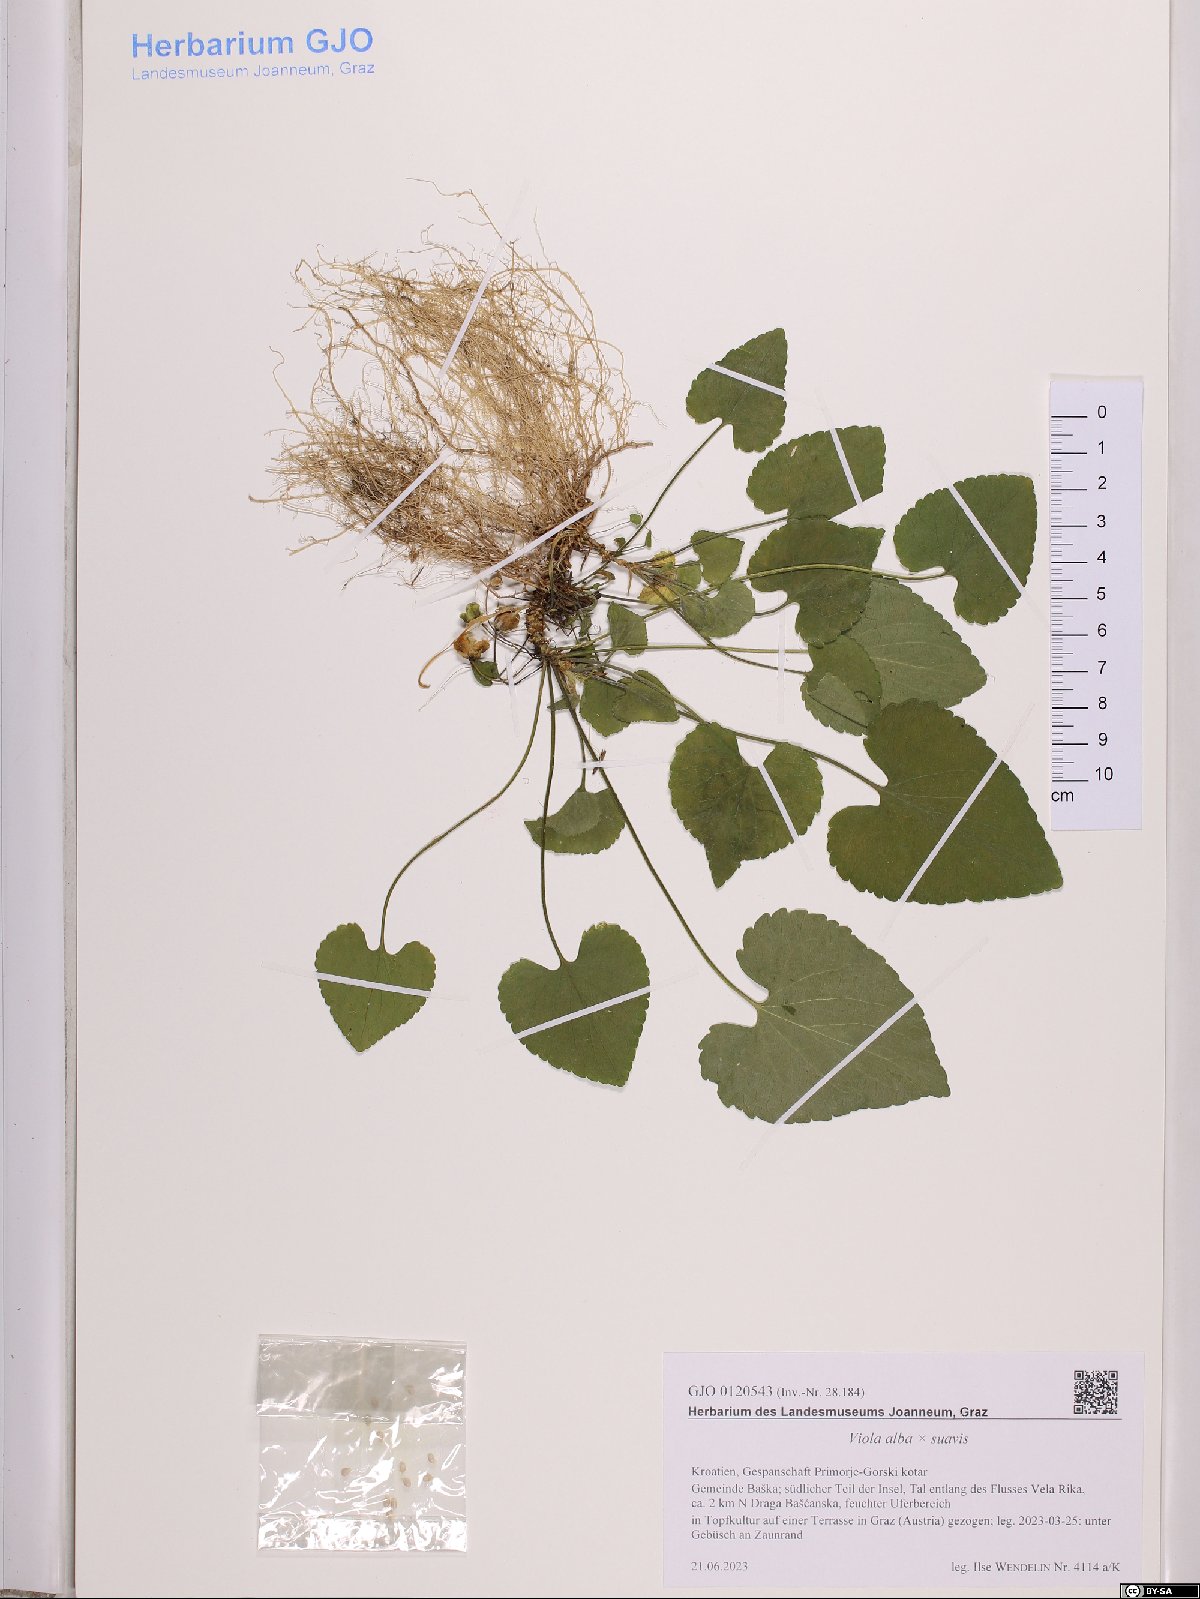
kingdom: Plantae
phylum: Tracheophyta
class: Magnoliopsida
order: Malpighiales
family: Violaceae
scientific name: Violaceae
